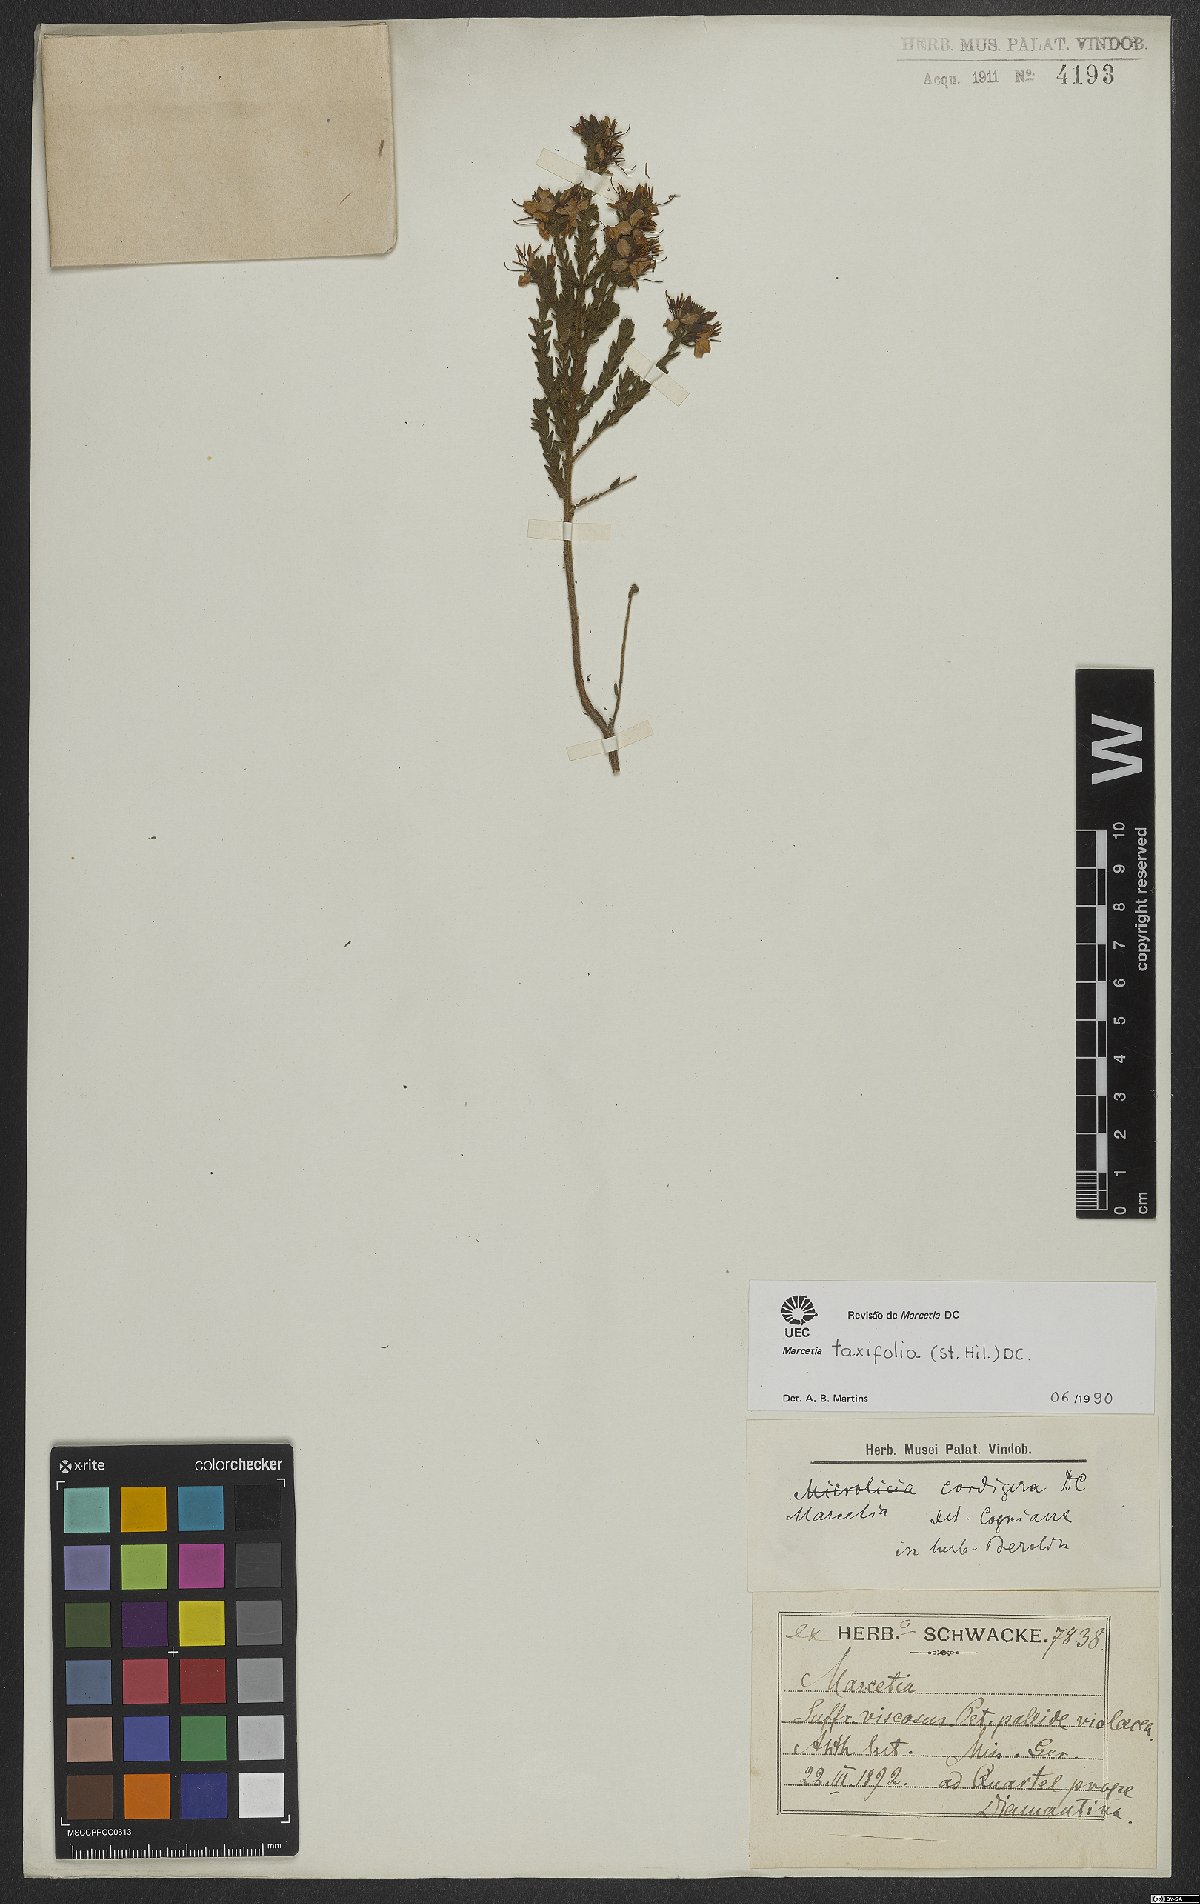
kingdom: Plantae
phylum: Tracheophyta
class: Magnoliopsida
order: Myrtales
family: Melastomataceae
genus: Marcetia
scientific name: Marcetia taxifolia
